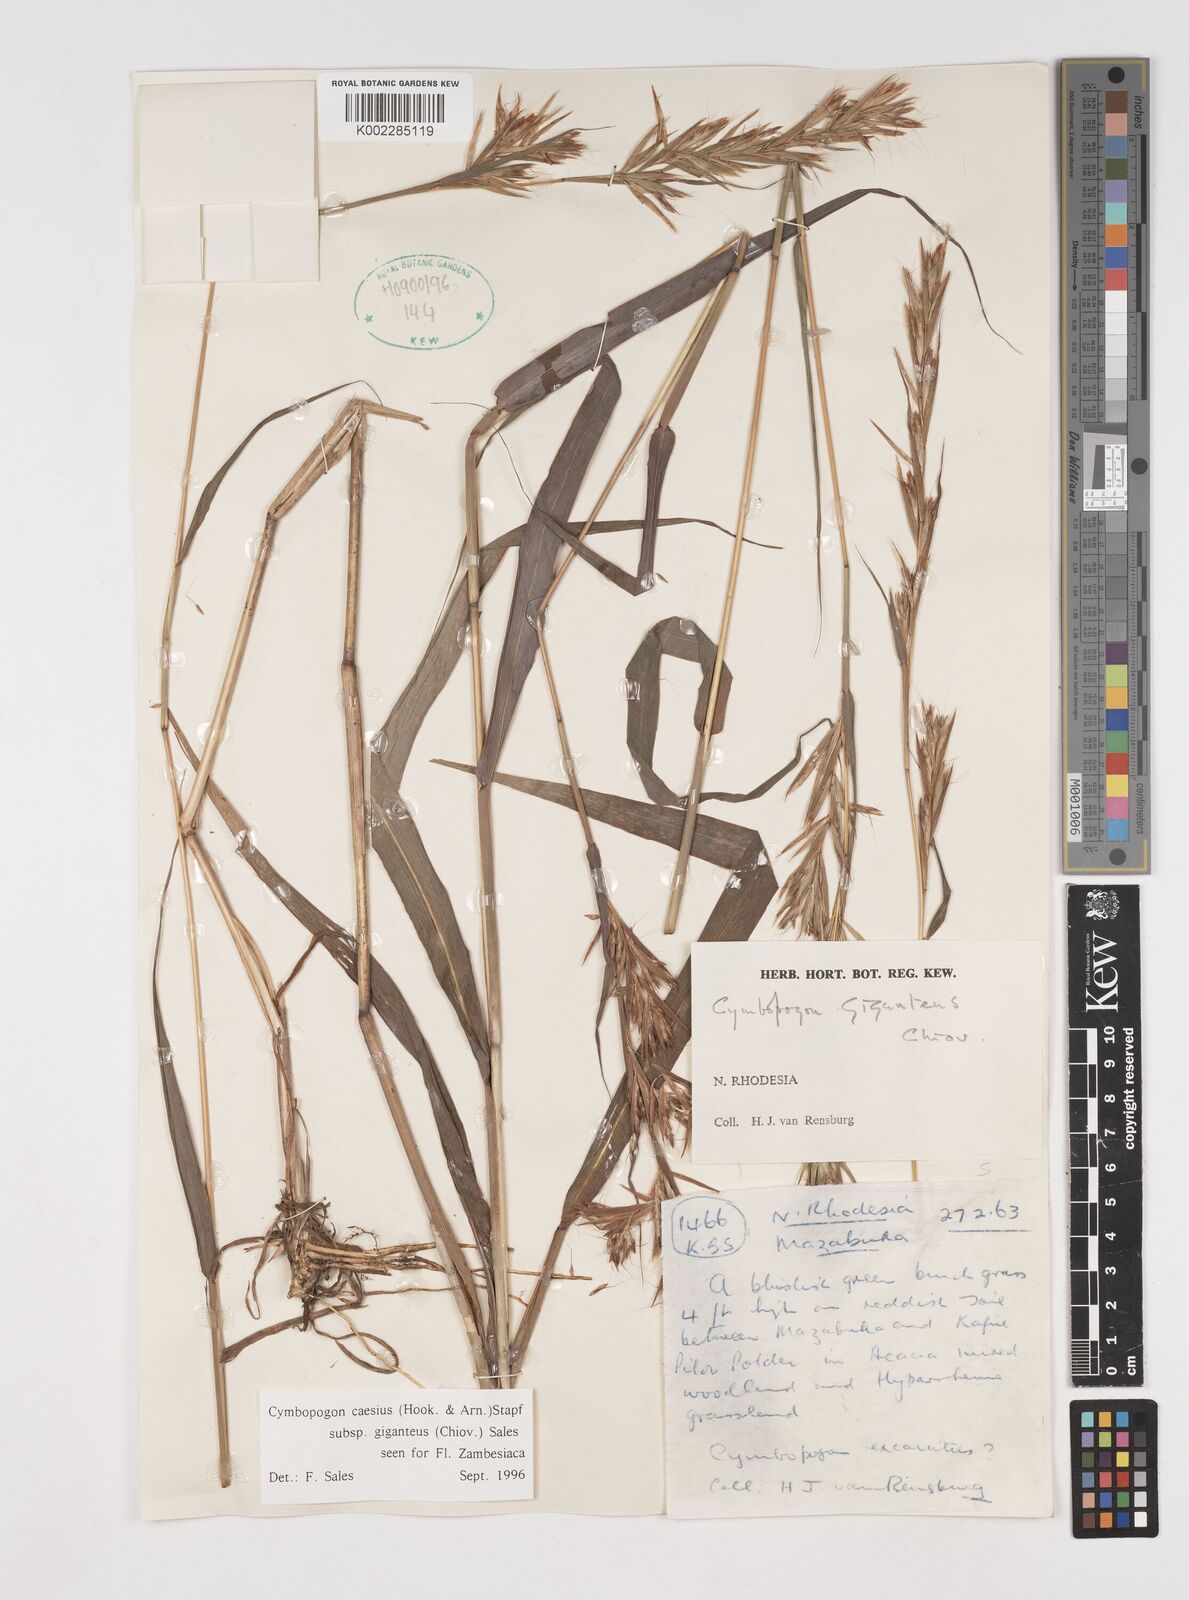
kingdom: Plantae
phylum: Tracheophyta
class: Liliopsida
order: Poales
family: Poaceae
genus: Cymbopogon
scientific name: Cymbopogon giganteus
